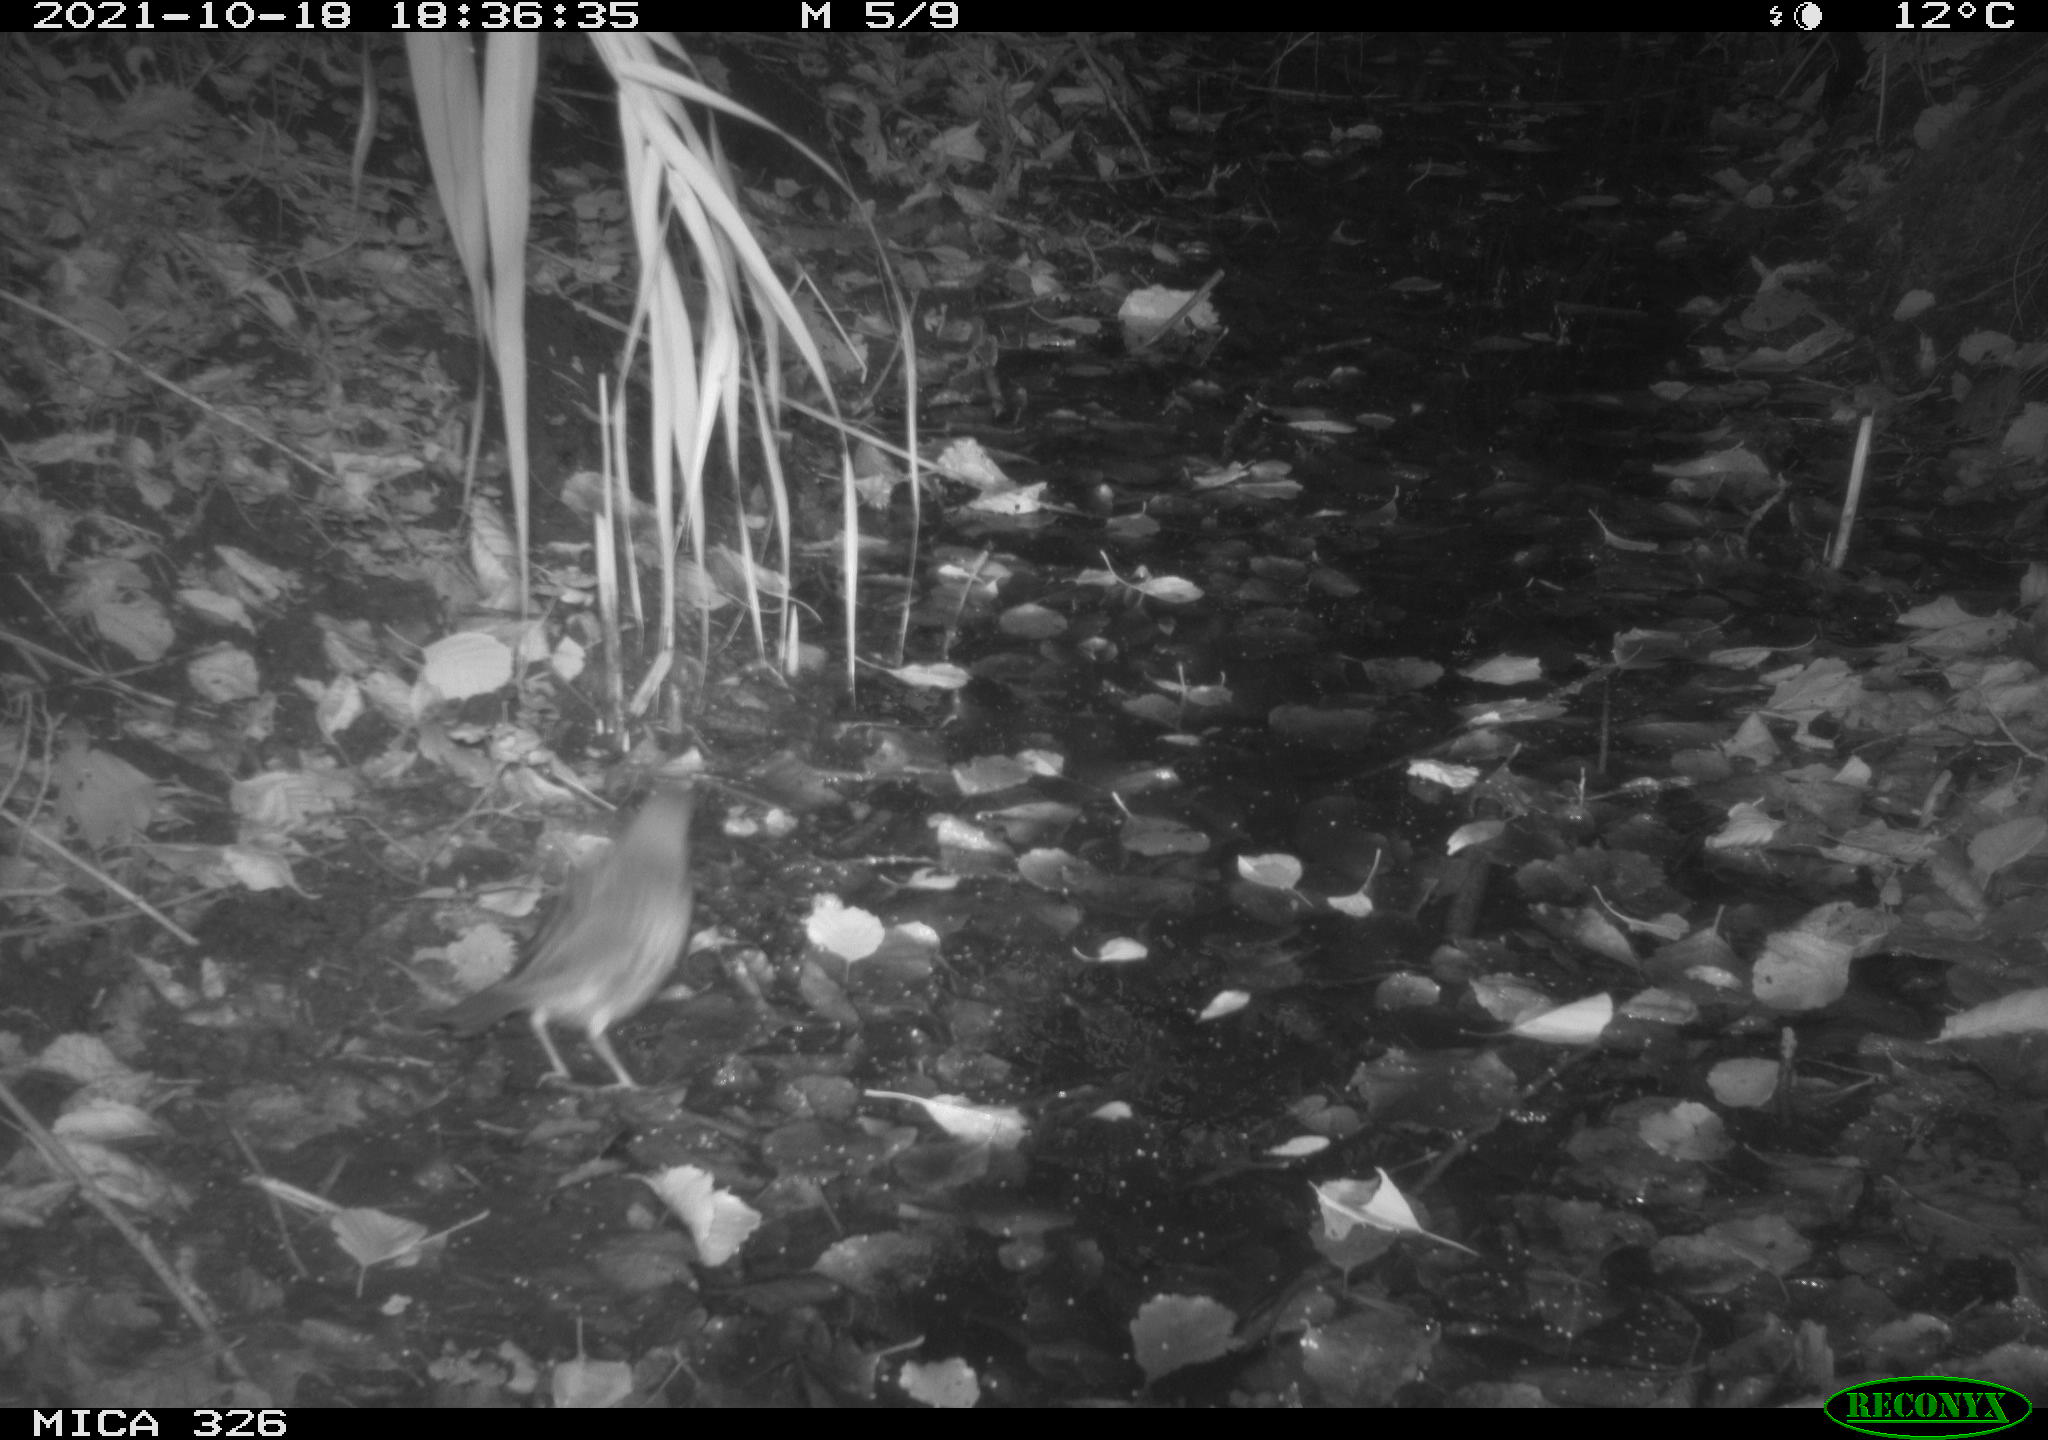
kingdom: Animalia
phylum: Chordata
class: Aves
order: Passeriformes
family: Turdidae
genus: Turdus
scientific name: Turdus philomelos
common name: Song thrush
